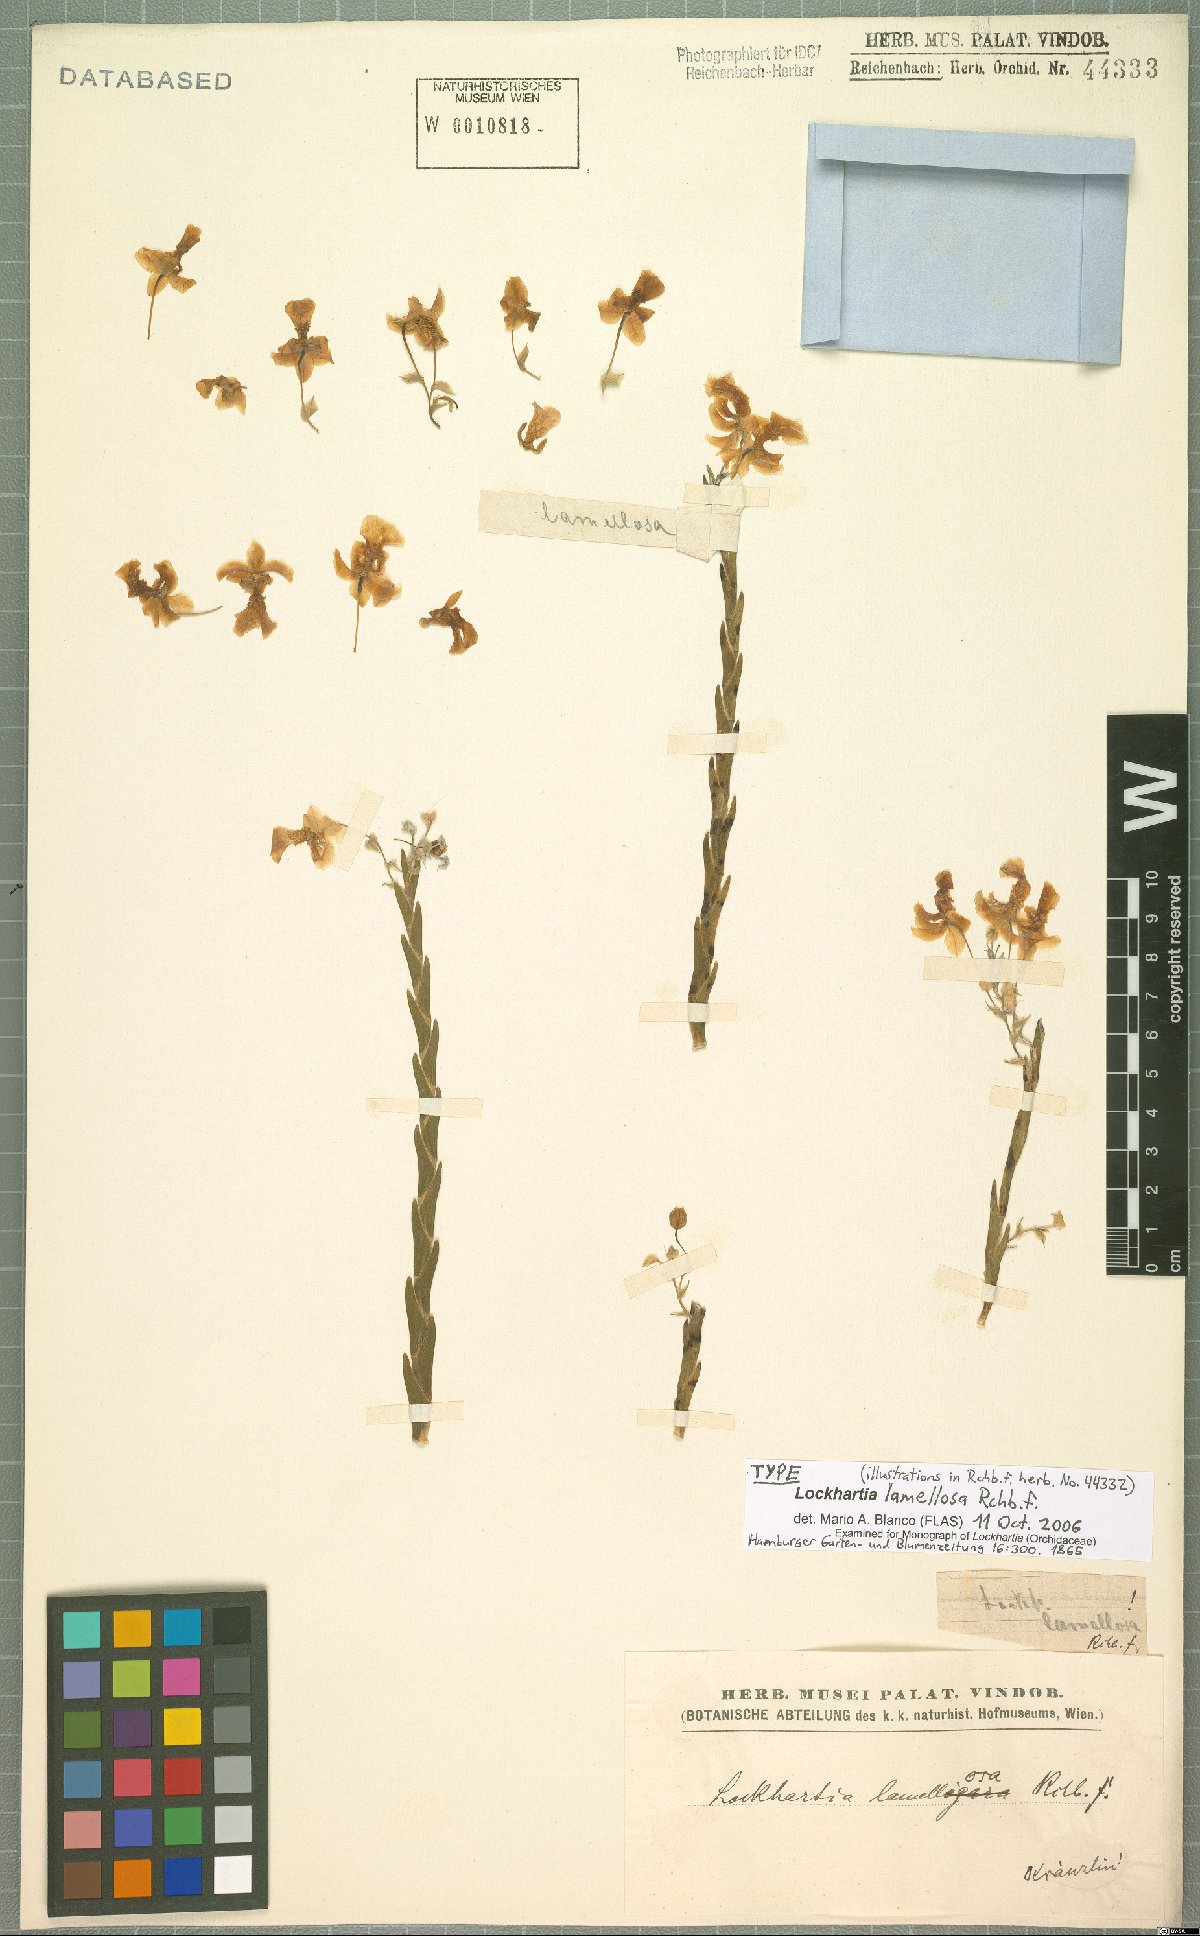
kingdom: Plantae
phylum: Tracheophyta
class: Liliopsida
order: Asparagales
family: Orchidaceae
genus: Lockhartia
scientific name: Lockhartia oerstedii
